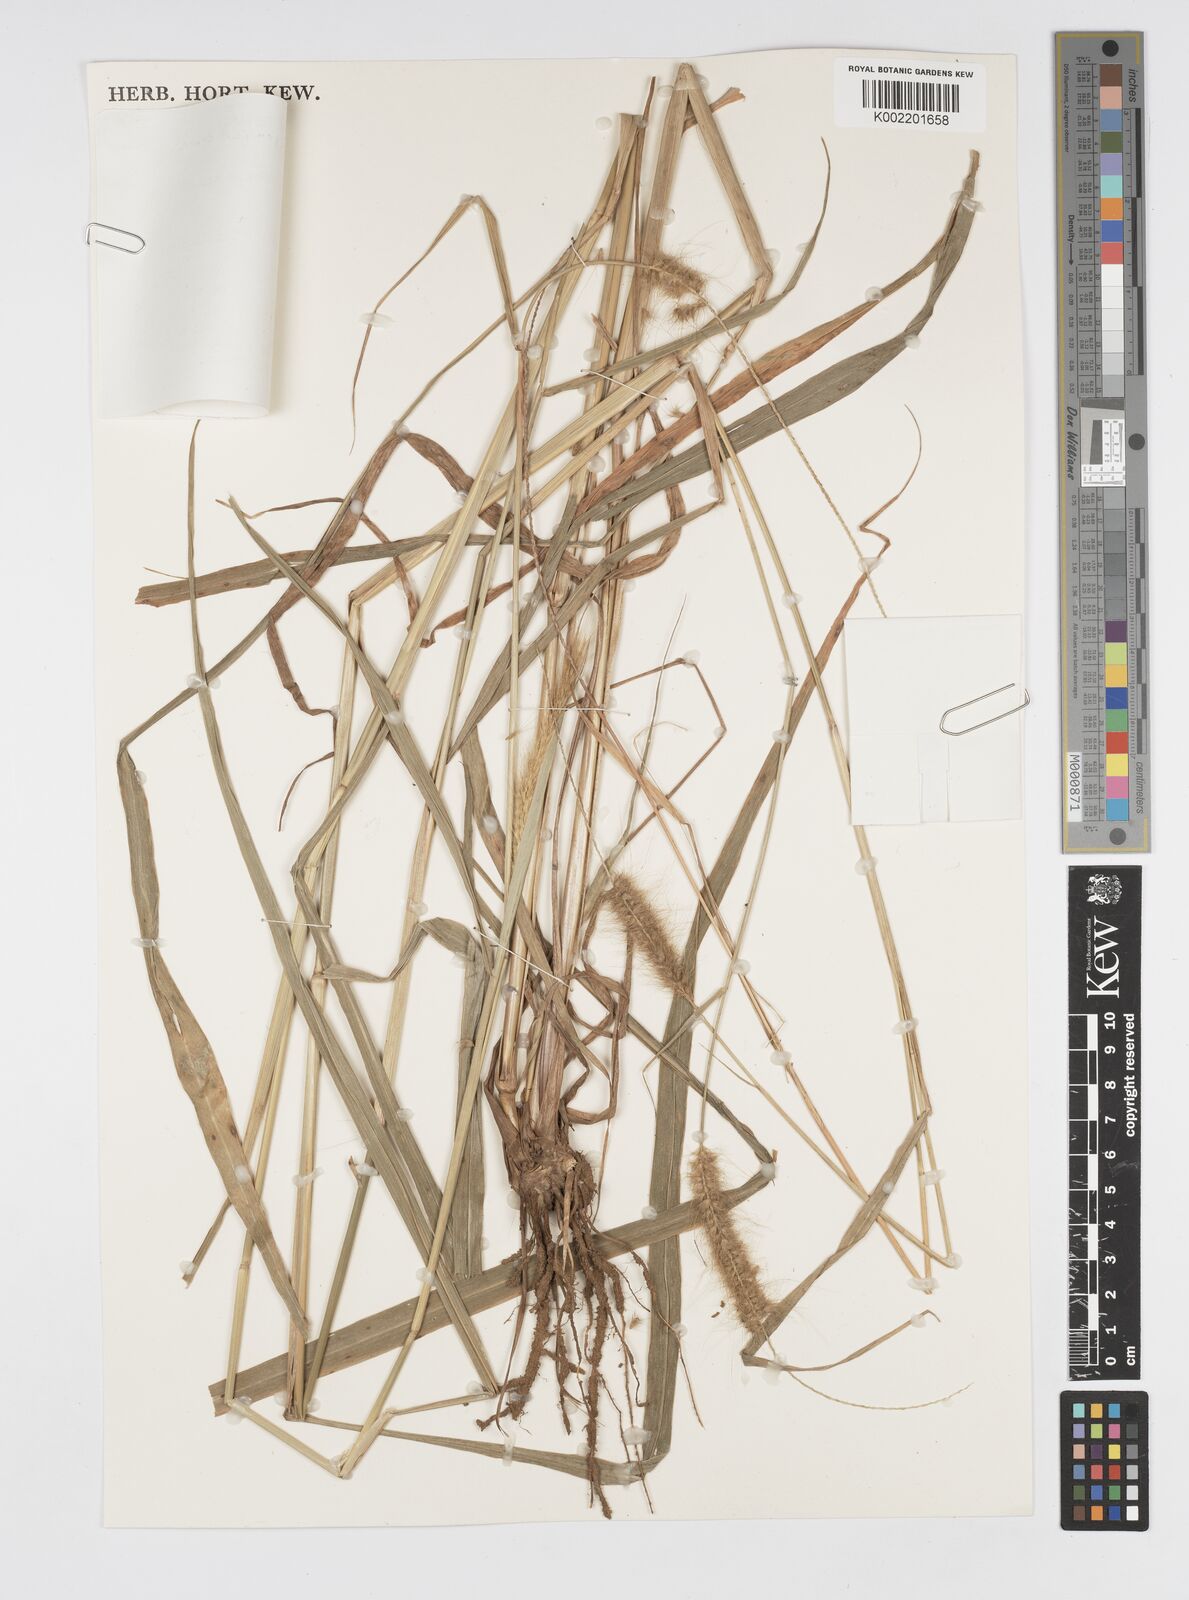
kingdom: Plantae
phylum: Tracheophyta
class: Liliopsida
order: Poales
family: Poaceae
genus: Setaria
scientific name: Setaria parviflora
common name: Knotroot bristle-grass
